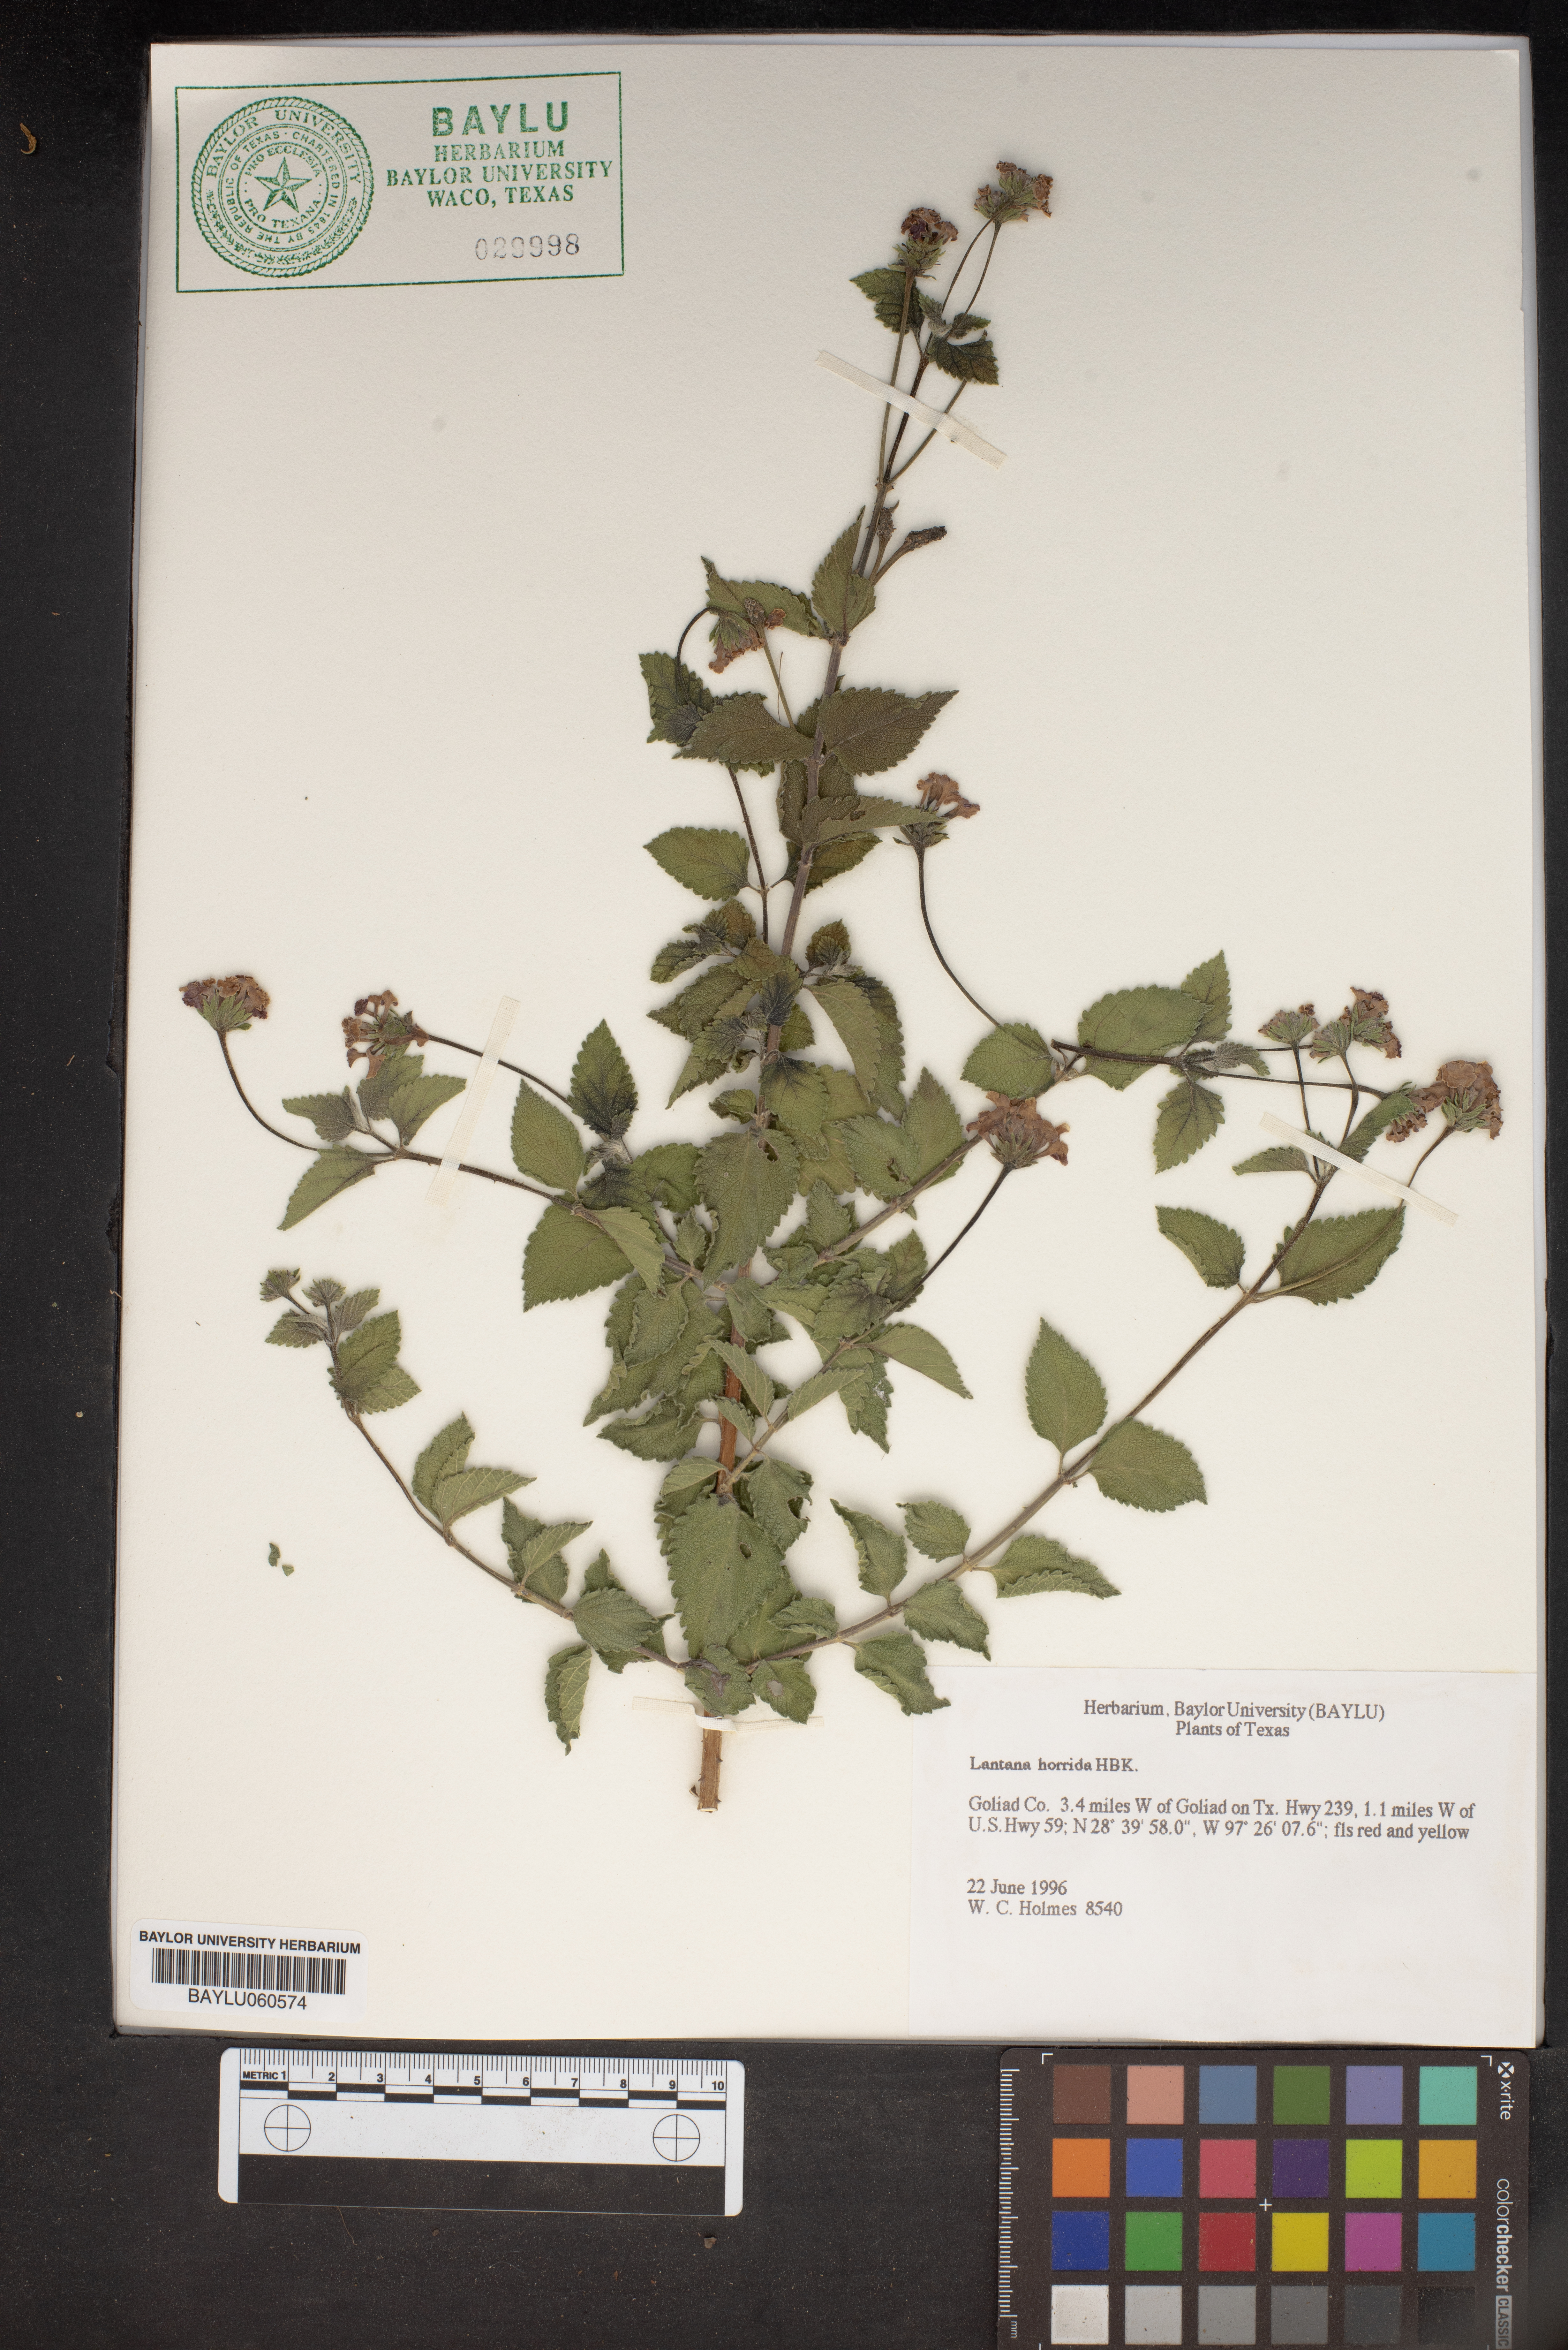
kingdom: Plantae
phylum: Tracheophyta
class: Magnoliopsida
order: Lamiales
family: Verbenaceae
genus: Lantana
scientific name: Lantana horrida
